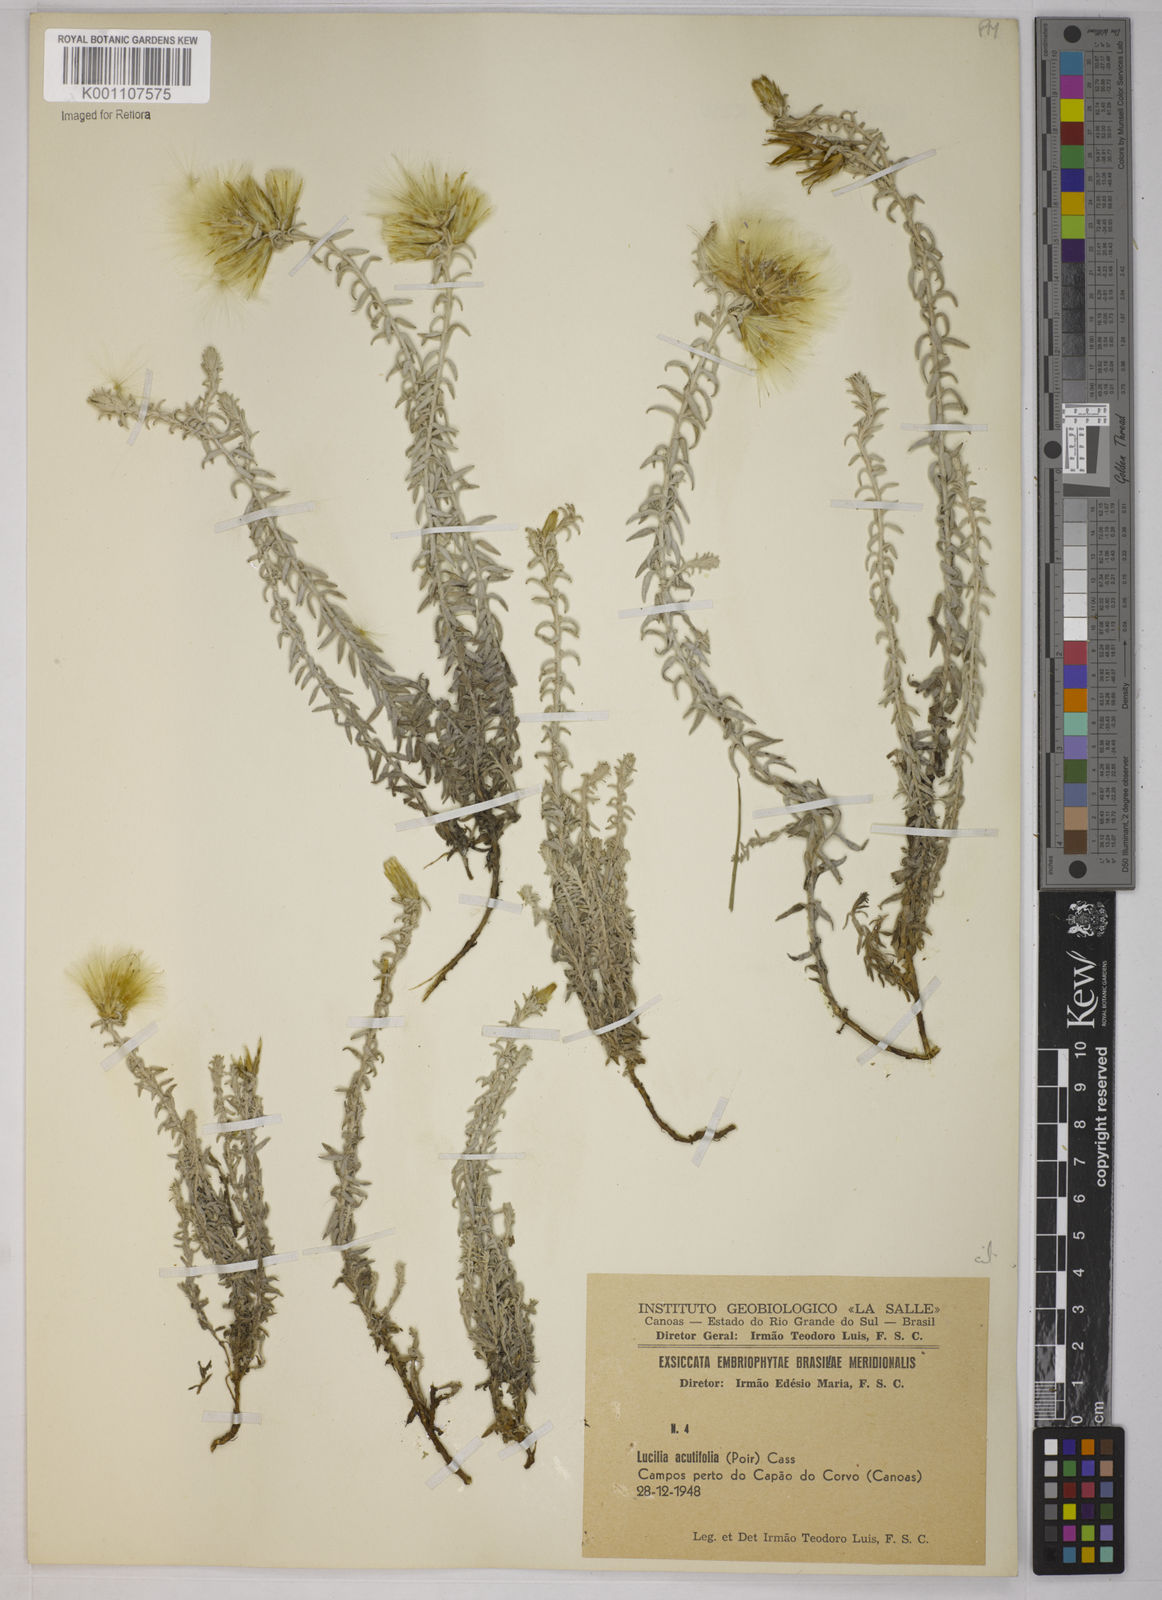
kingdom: Plantae
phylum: Tracheophyta
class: Magnoliopsida
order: Asterales
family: Asteraceae
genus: Lucilia
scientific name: Lucilia acutifolia
